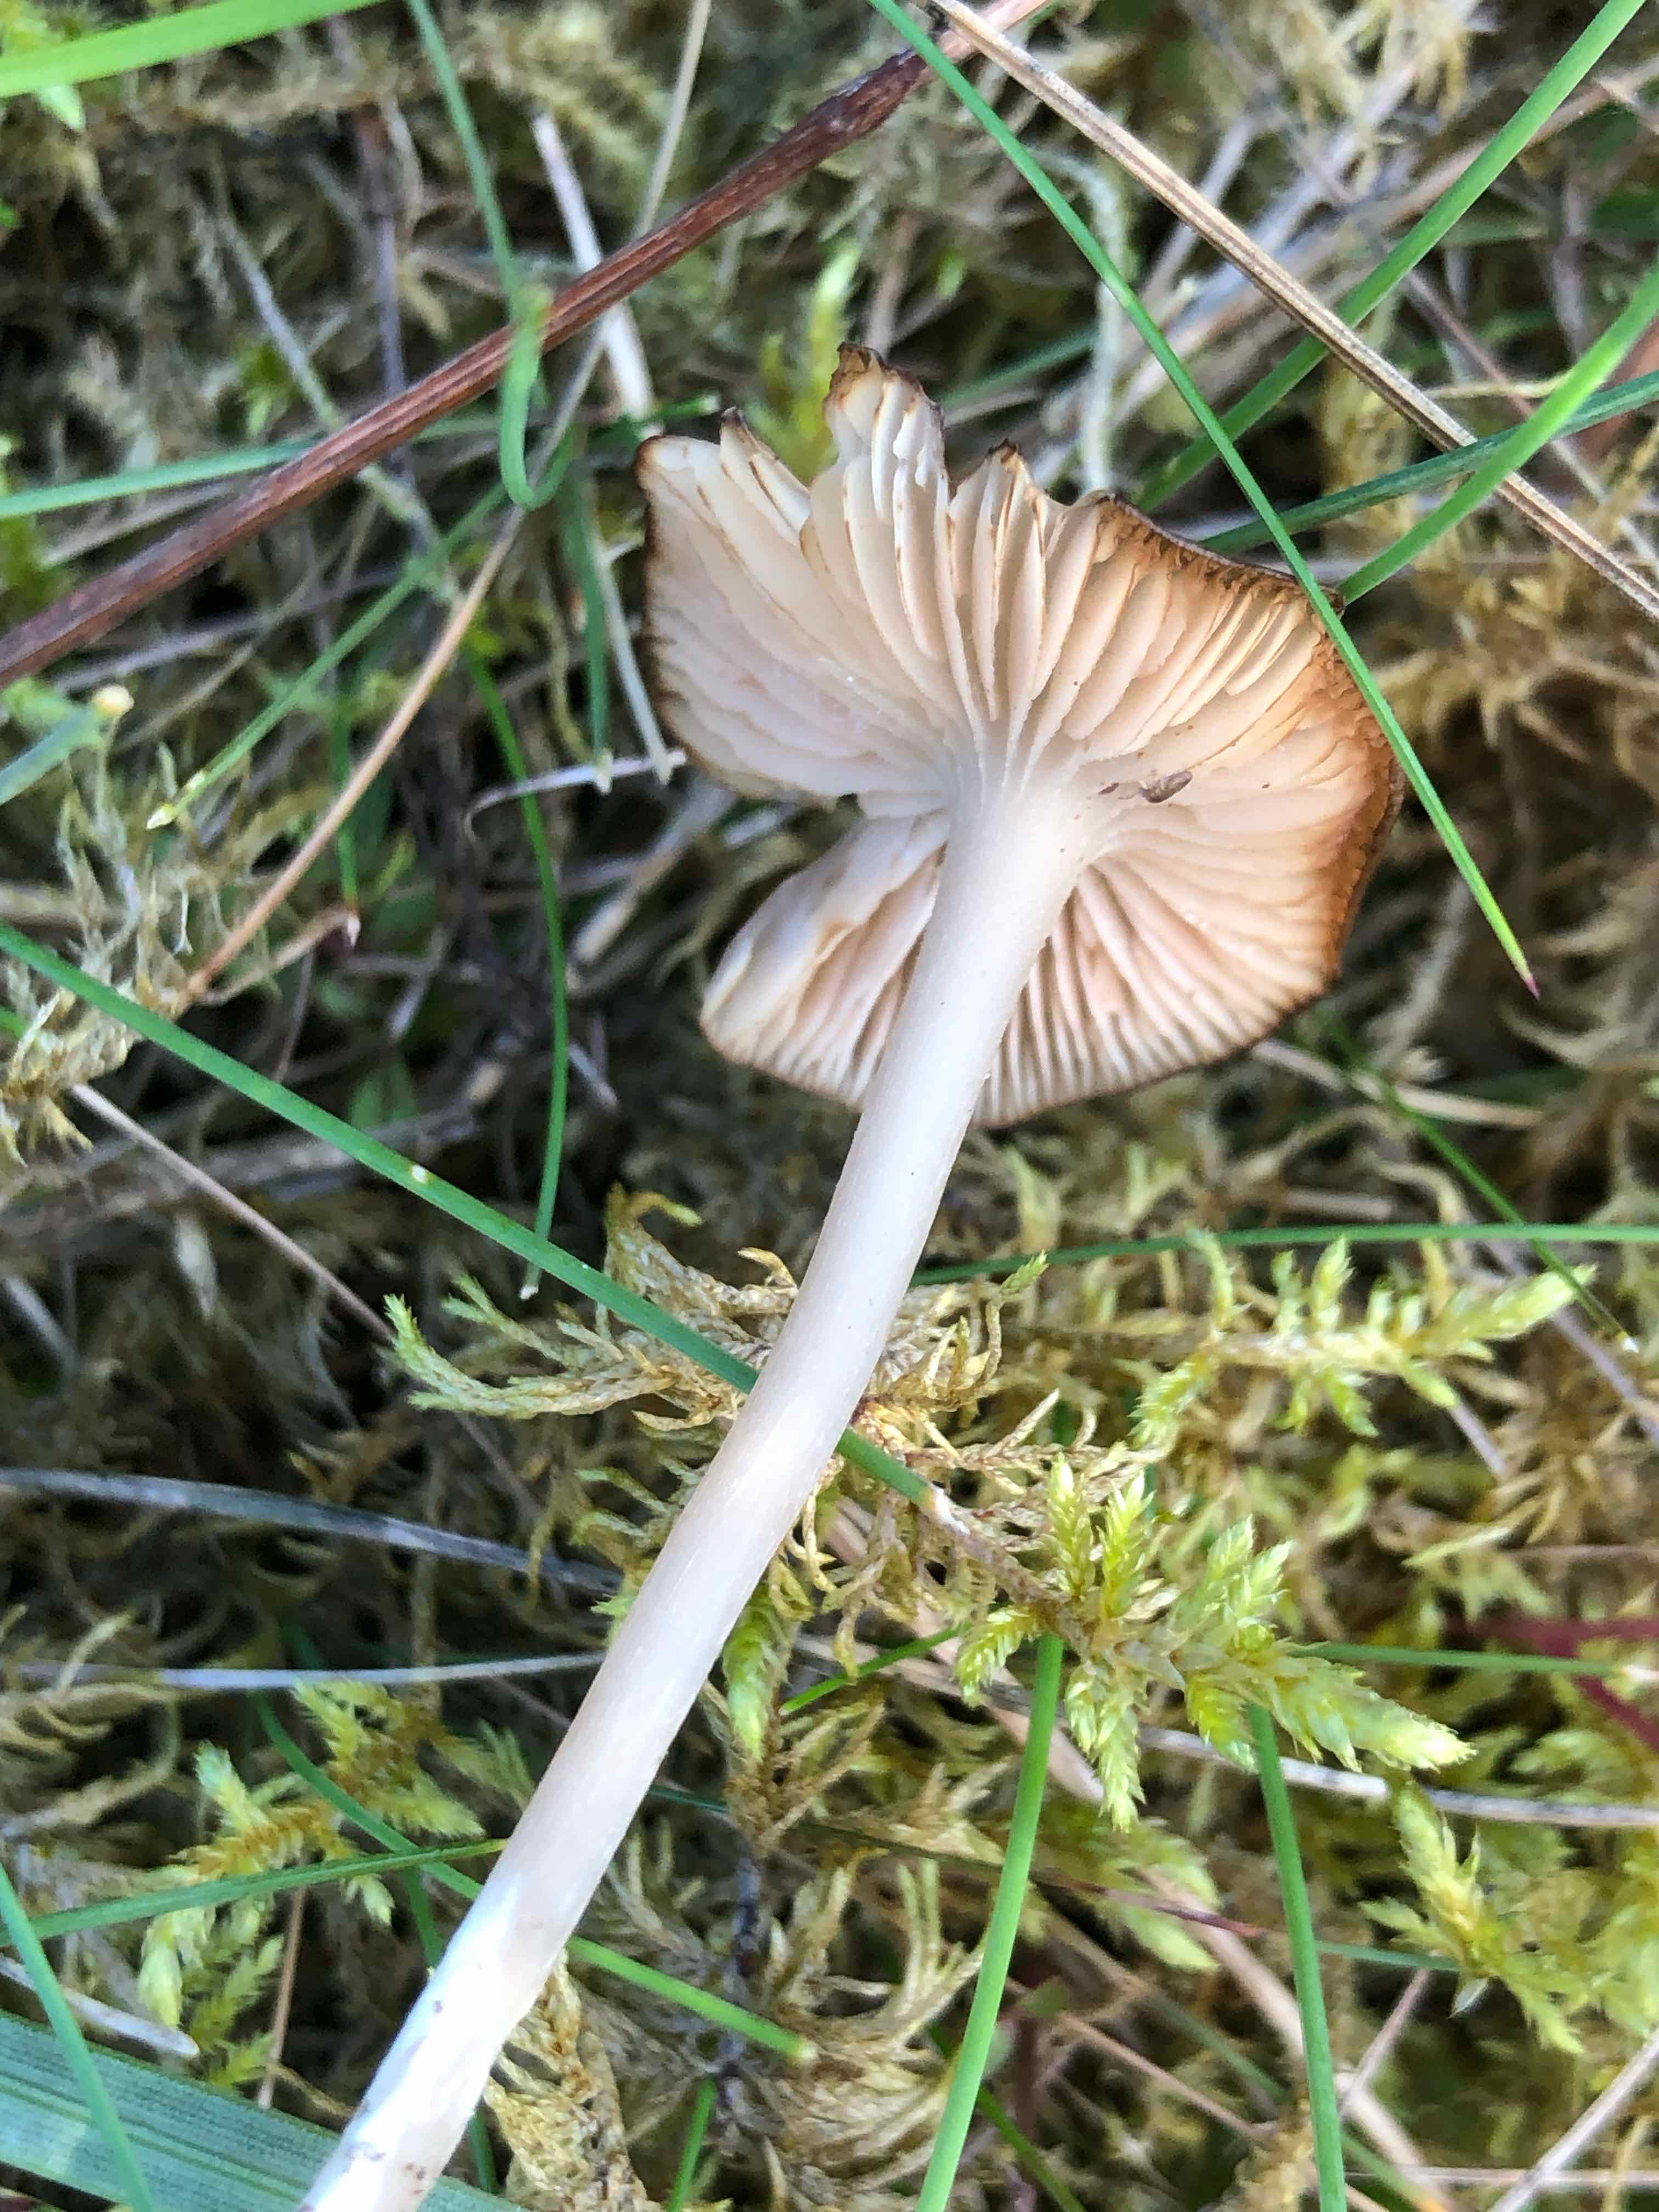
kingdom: Fungi
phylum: Basidiomycota
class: Agaricomycetes
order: Agaricales
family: Entolomataceae
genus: Entoloma
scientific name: Entoloma
